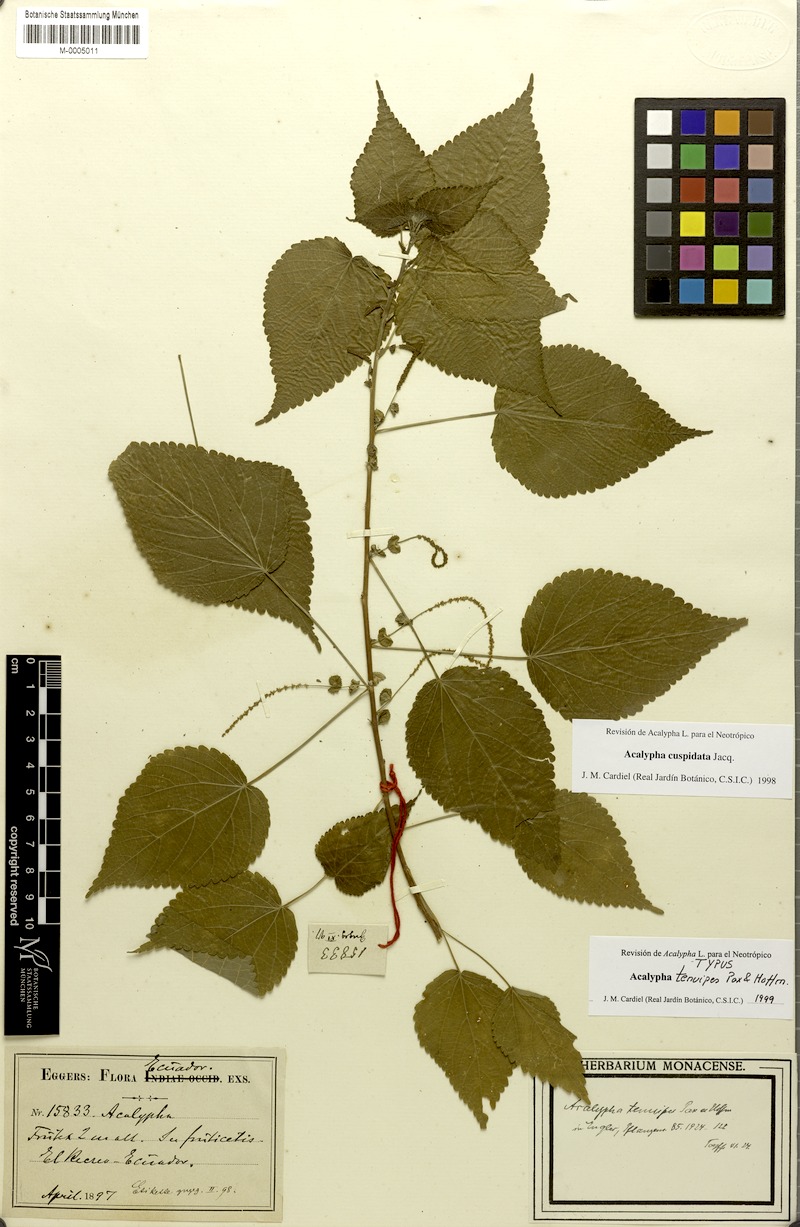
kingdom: Plantae
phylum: Tracheophyta
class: Magnoliopsida
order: Malpighiales
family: Euphorbiaceae
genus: Acalypha
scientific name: Acalypha cuspidata
